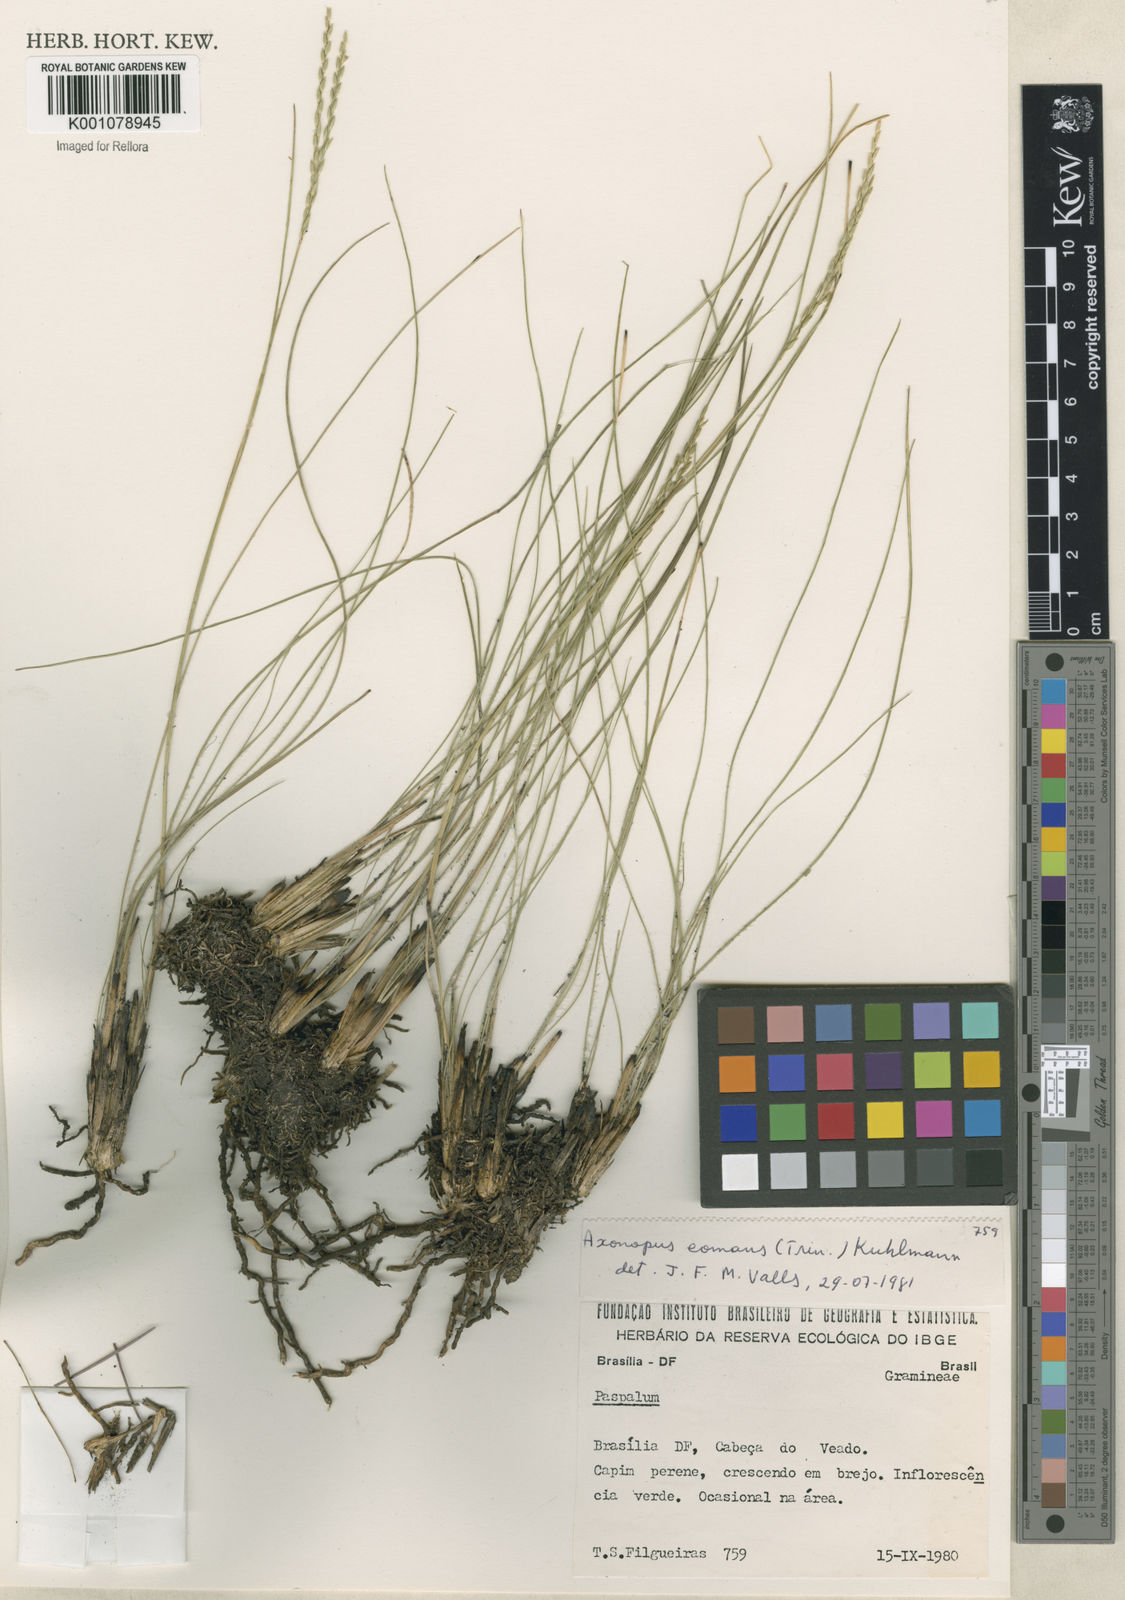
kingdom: Plantae
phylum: Tracheophyta
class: Liliopsida
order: Poales
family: Poaceae
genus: Axonopus
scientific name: Axonopus
